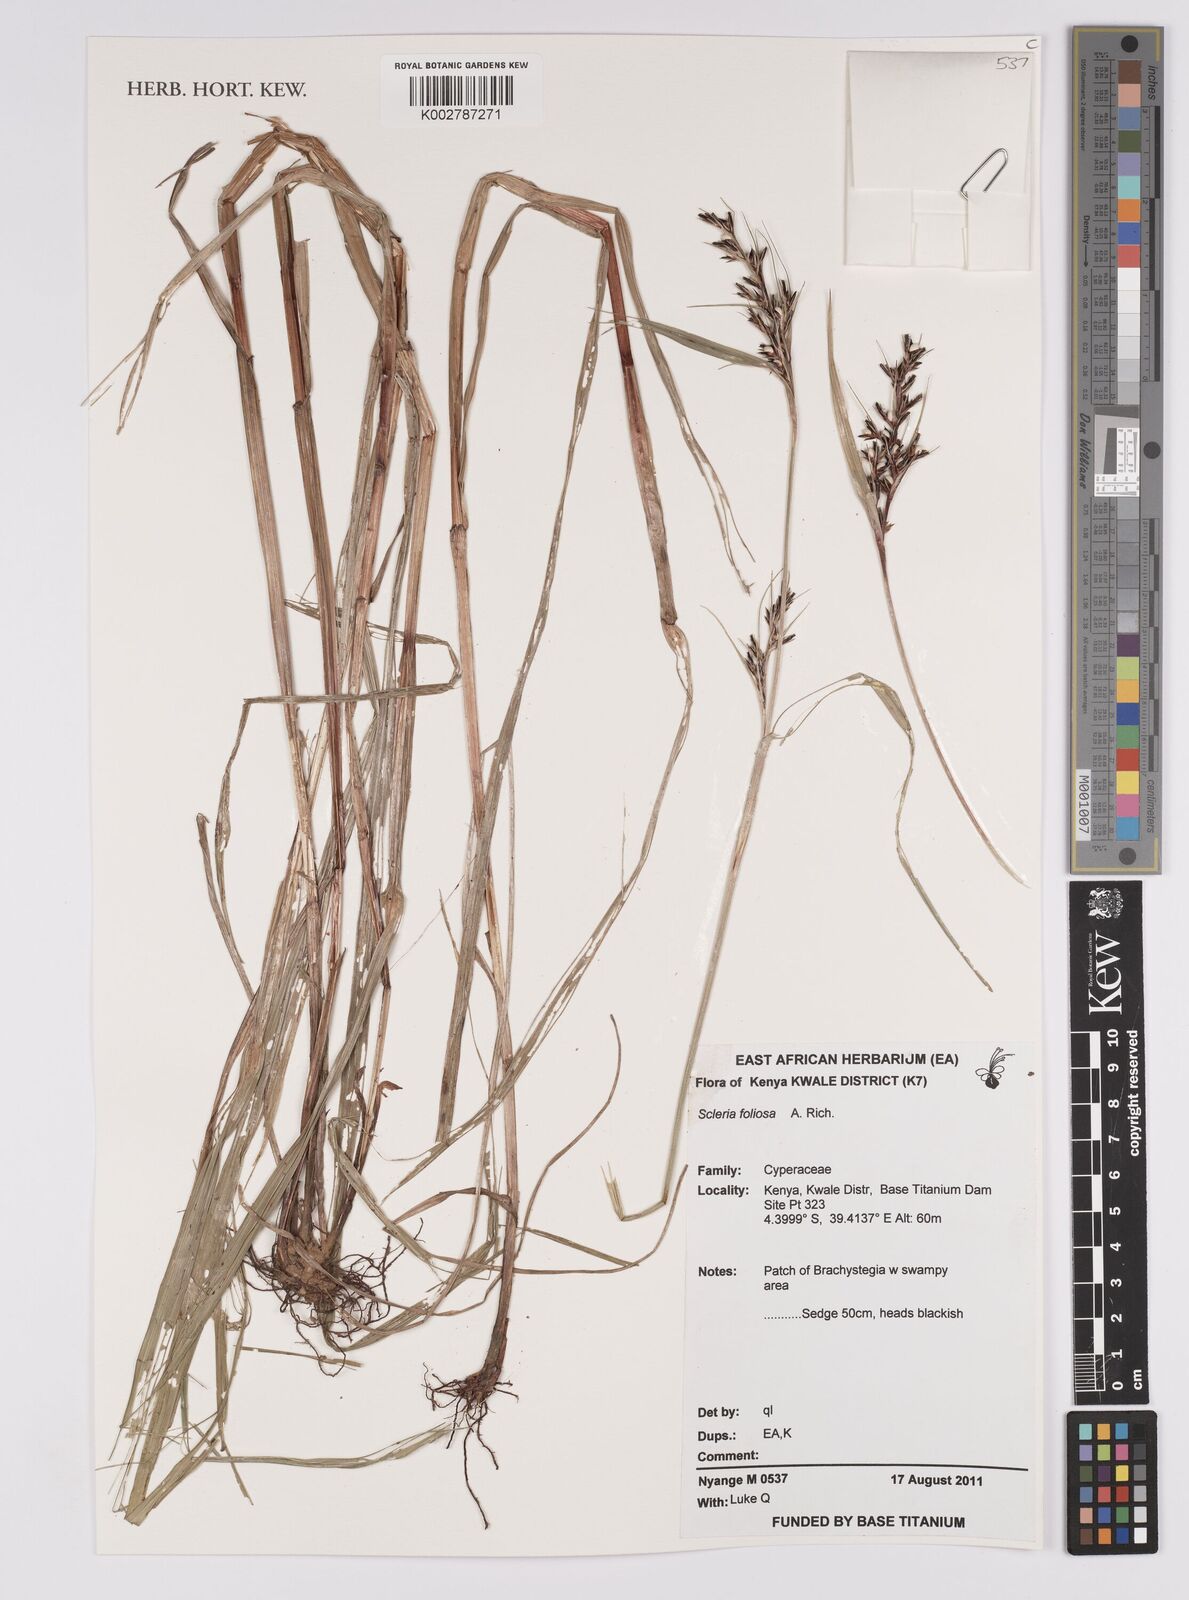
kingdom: Plantae
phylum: Tracheophyta
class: Liliopsida
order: Poales
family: Cyperaceae
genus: Scleria
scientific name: Scleria foliosa
